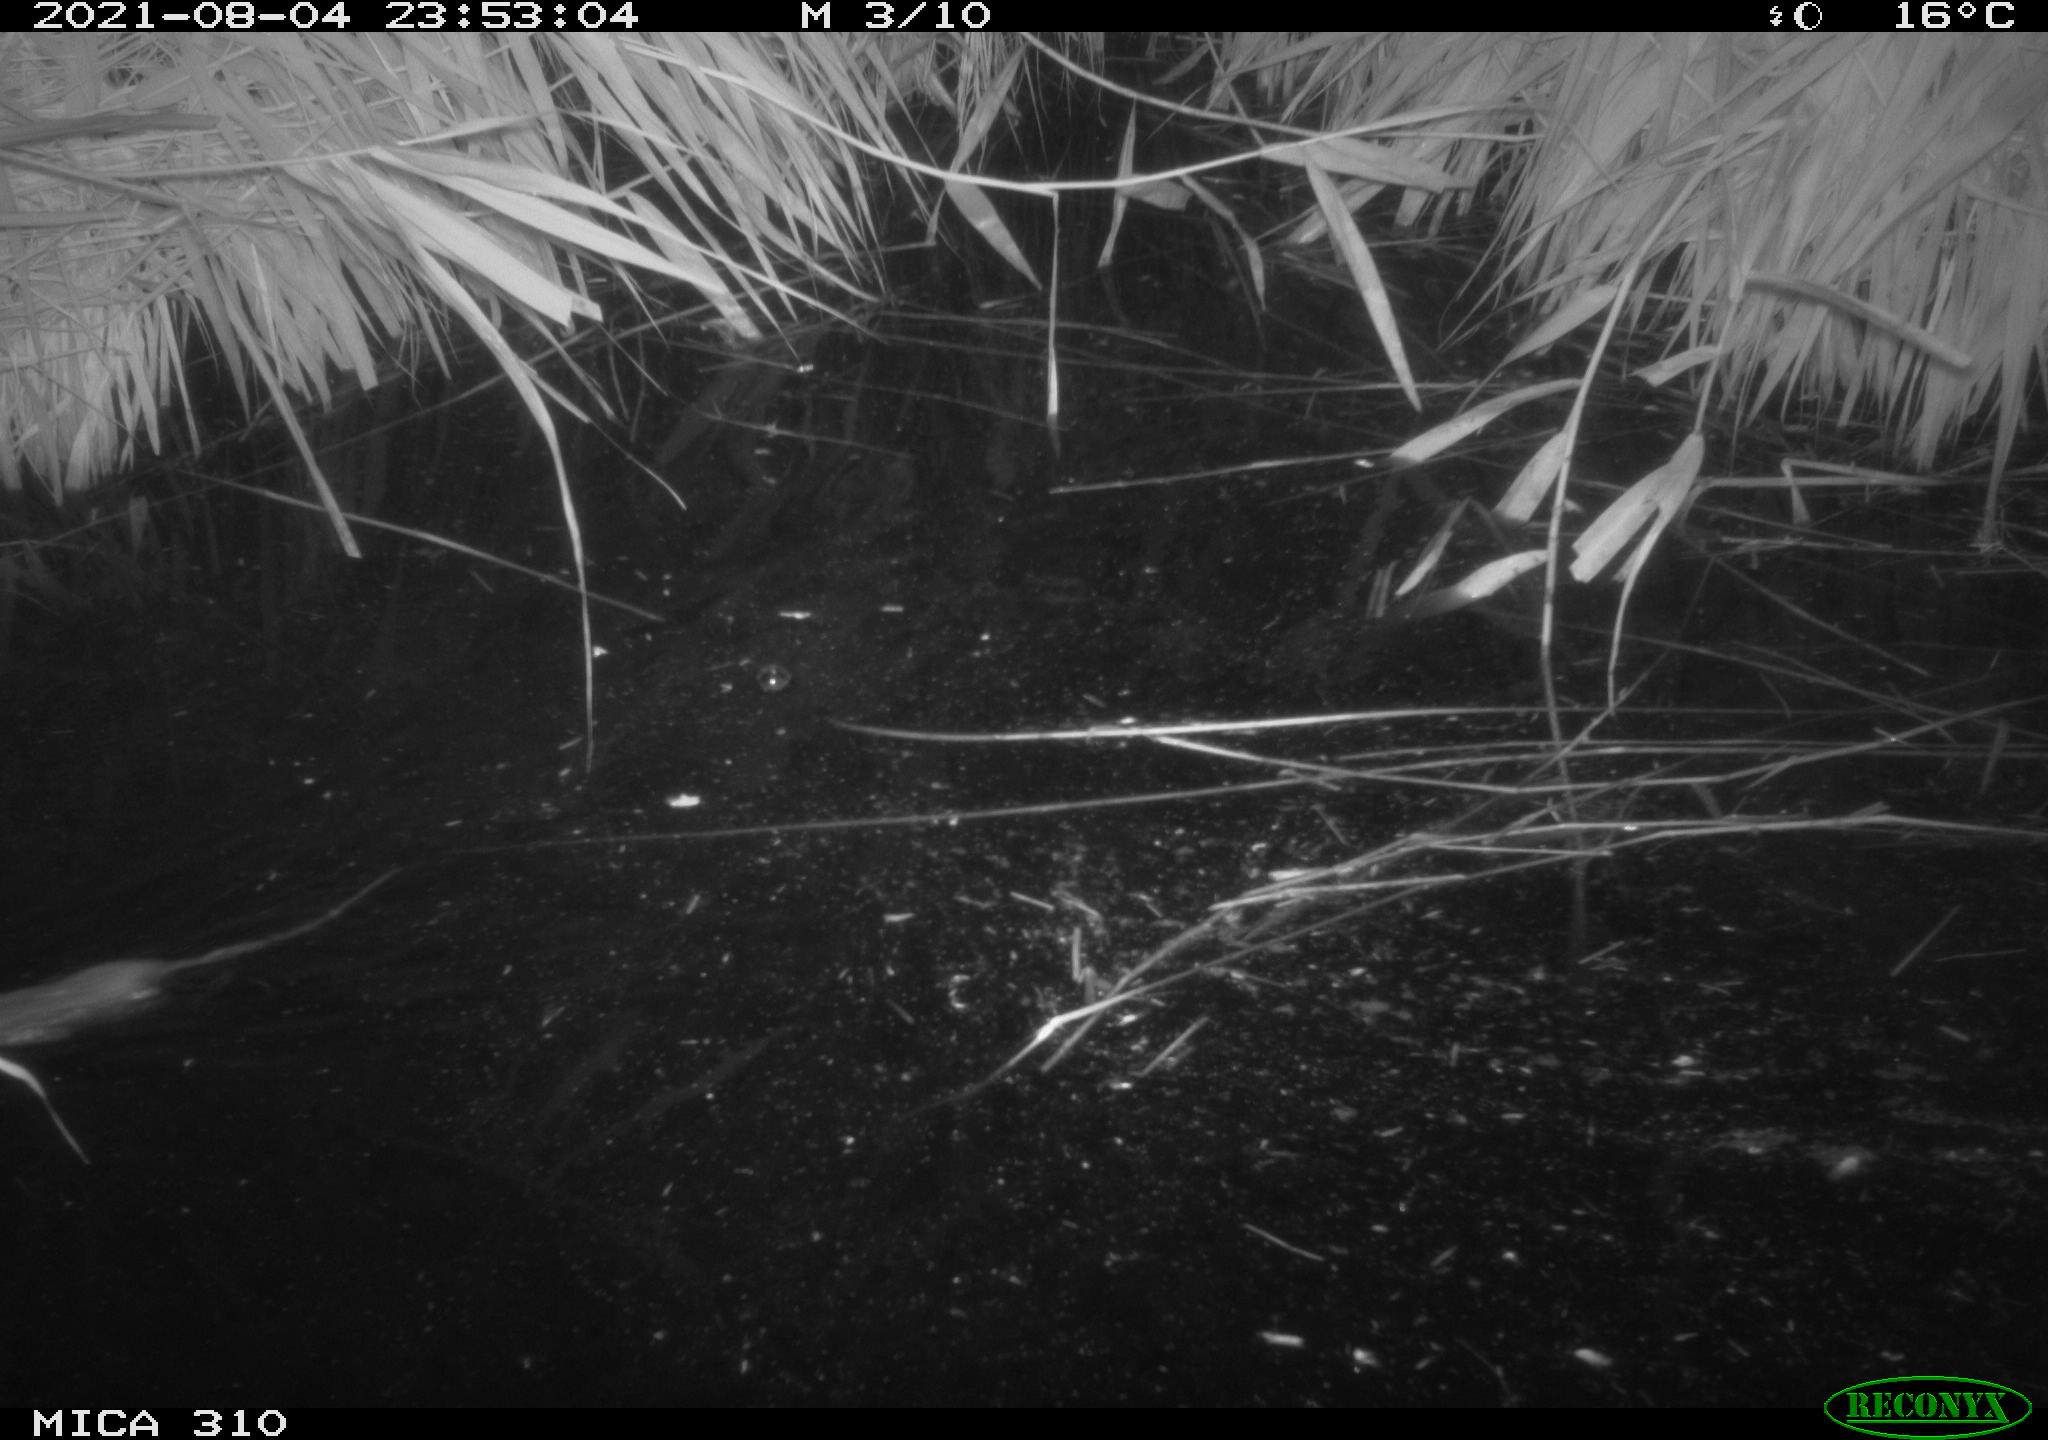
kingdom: Animalia
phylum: Chordata
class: Mammalia
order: Rodentia
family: Muridae
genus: Rattus
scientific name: Rattus norvegicus
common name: Brown rat
